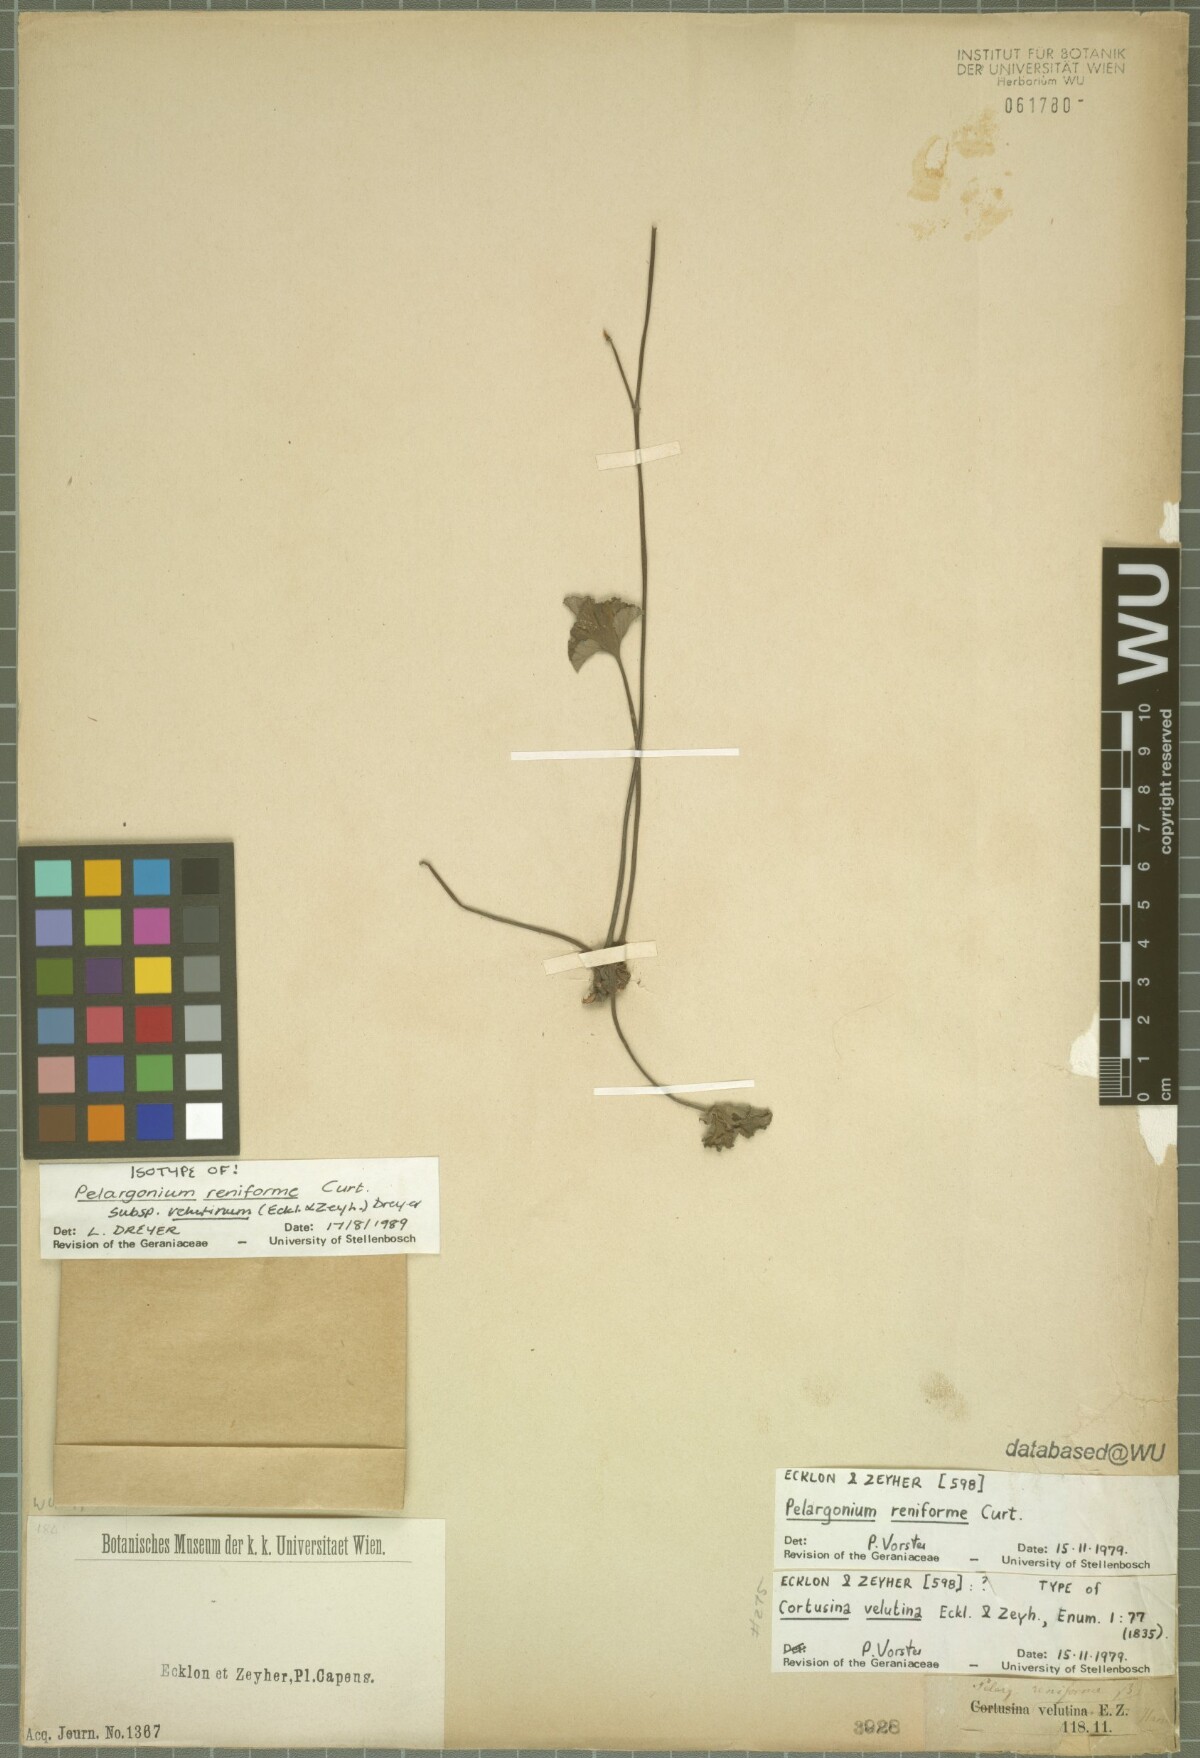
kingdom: Plantae
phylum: Tracheophyta
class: Magnoliopsida
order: Geraniales
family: Geraniaceae
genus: Pelargonium
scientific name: Pelargonium reniforme
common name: Kidney-leaf pelargonium
